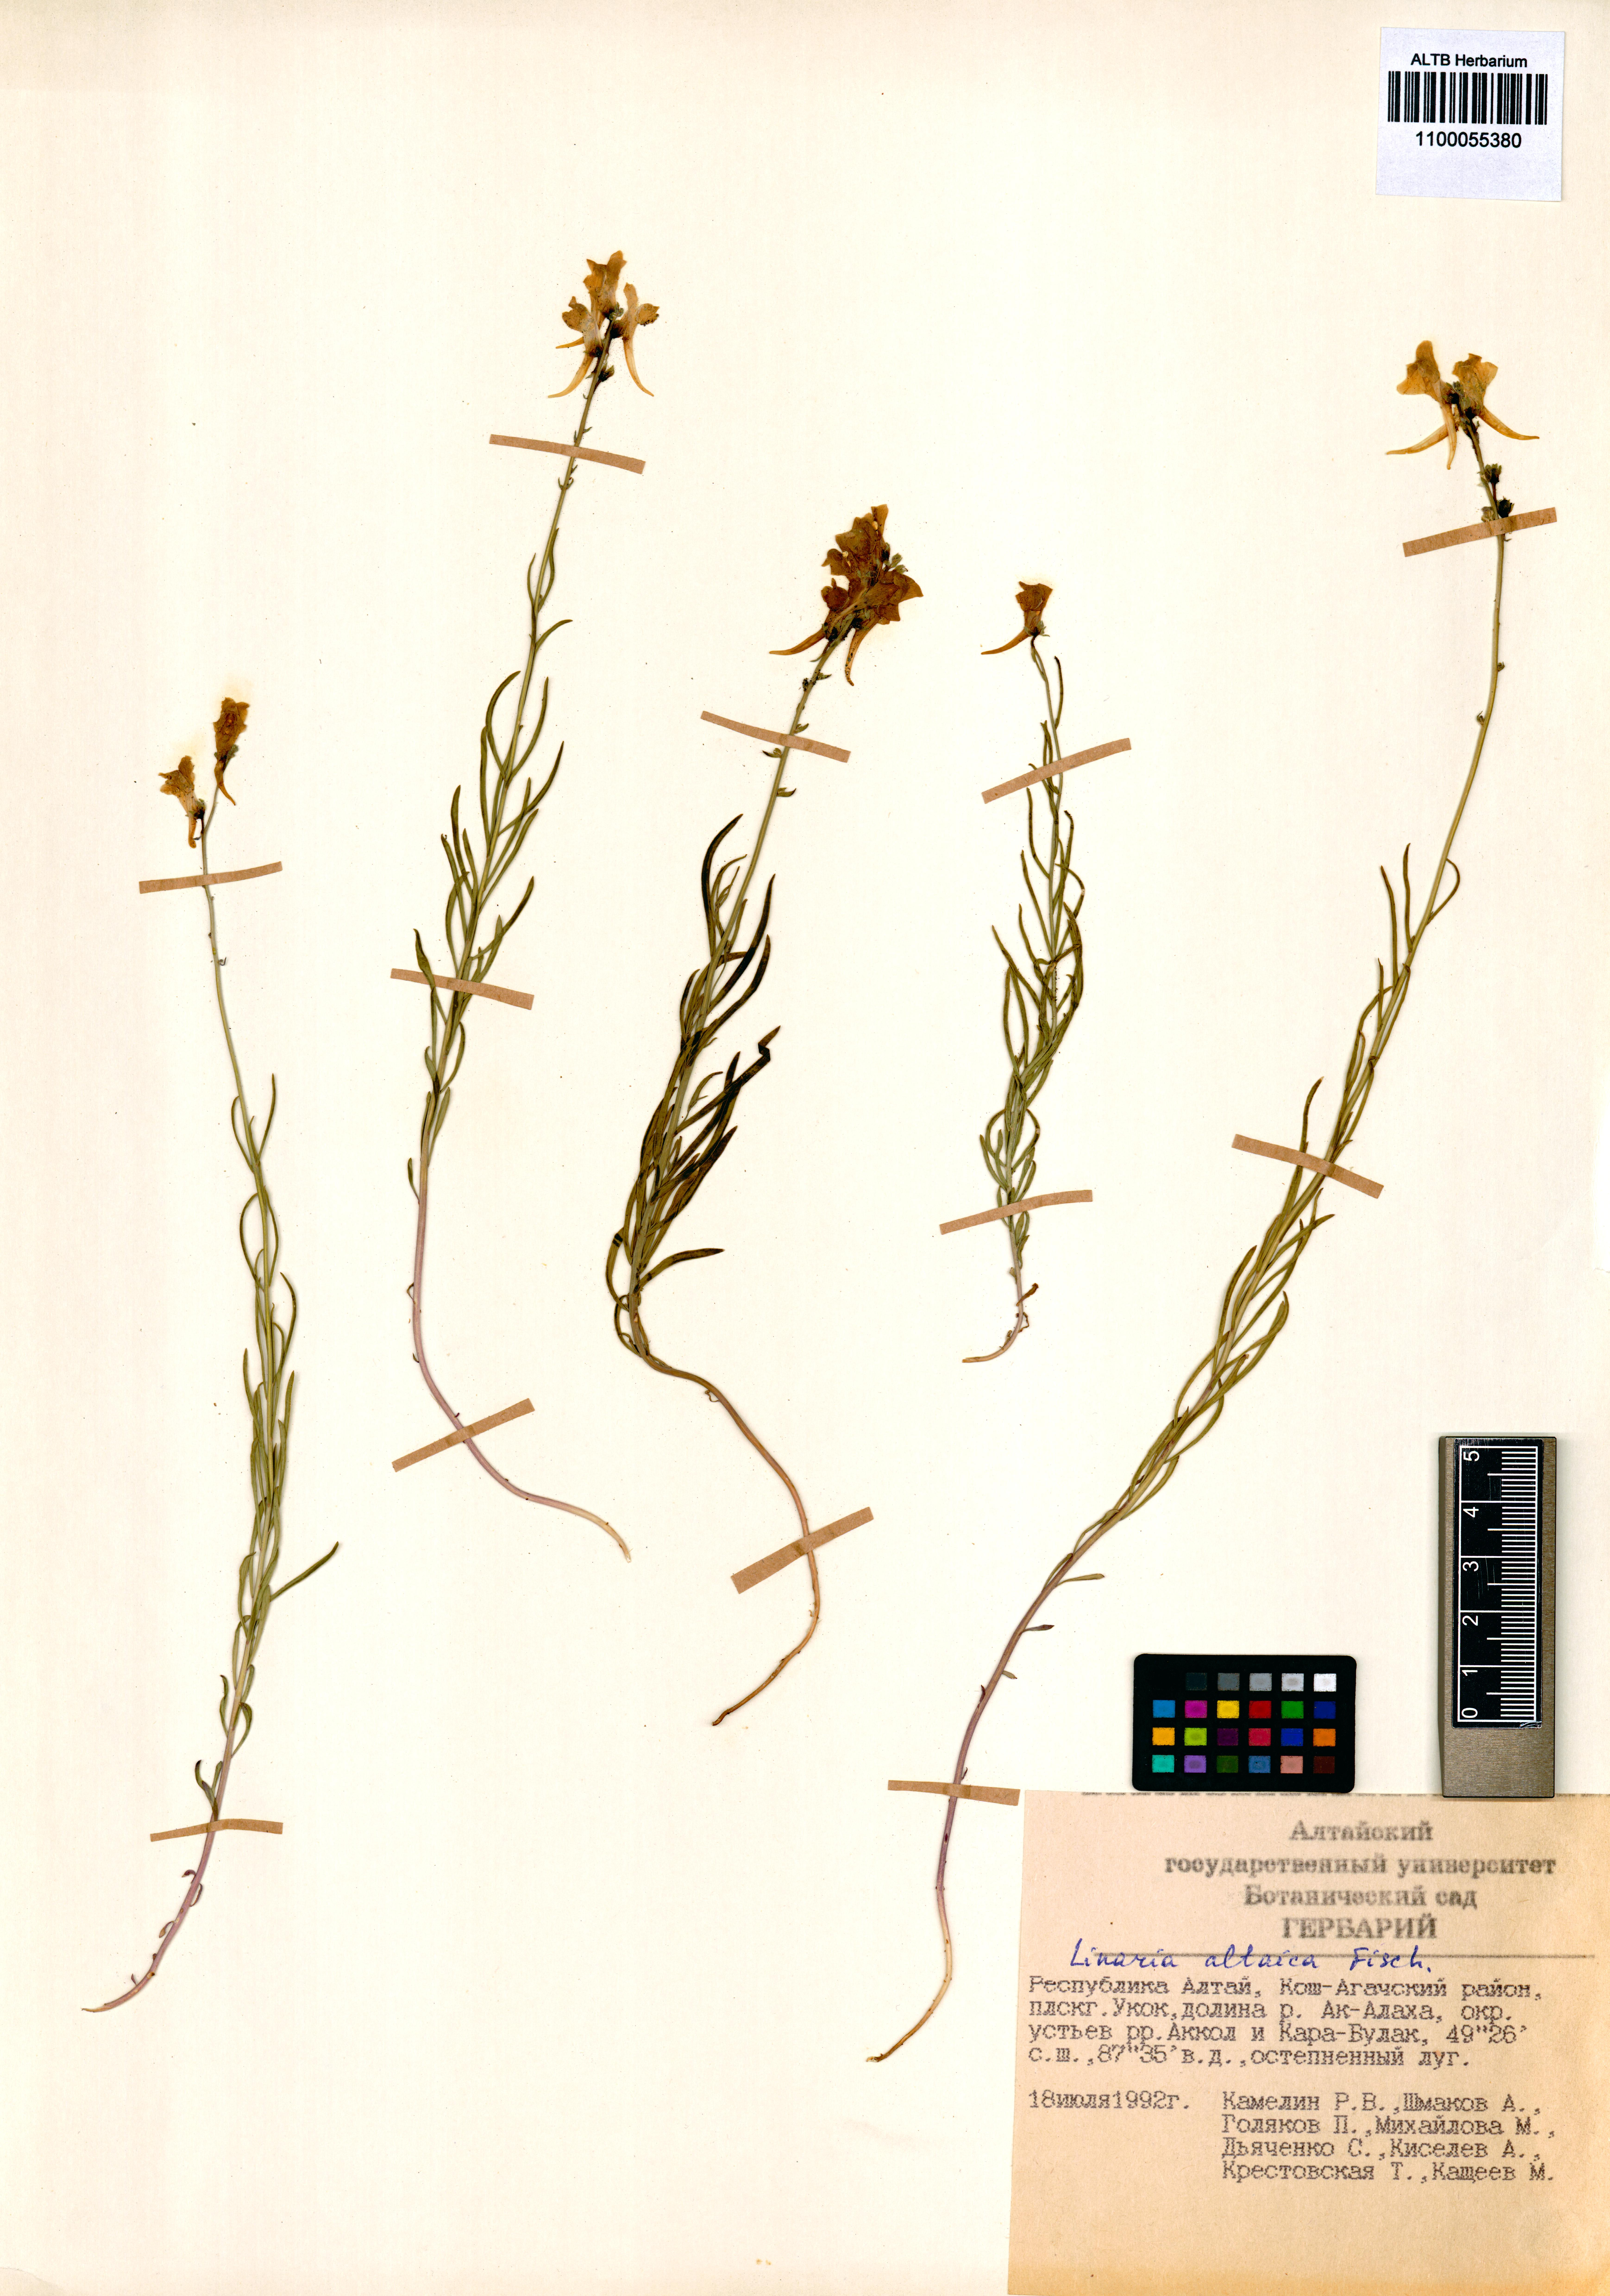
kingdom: Plantae
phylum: Tracheophyta
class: Magnoliopsida
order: Lamiales
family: Plantaginaceae
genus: Linaria
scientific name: Linaria altaica
